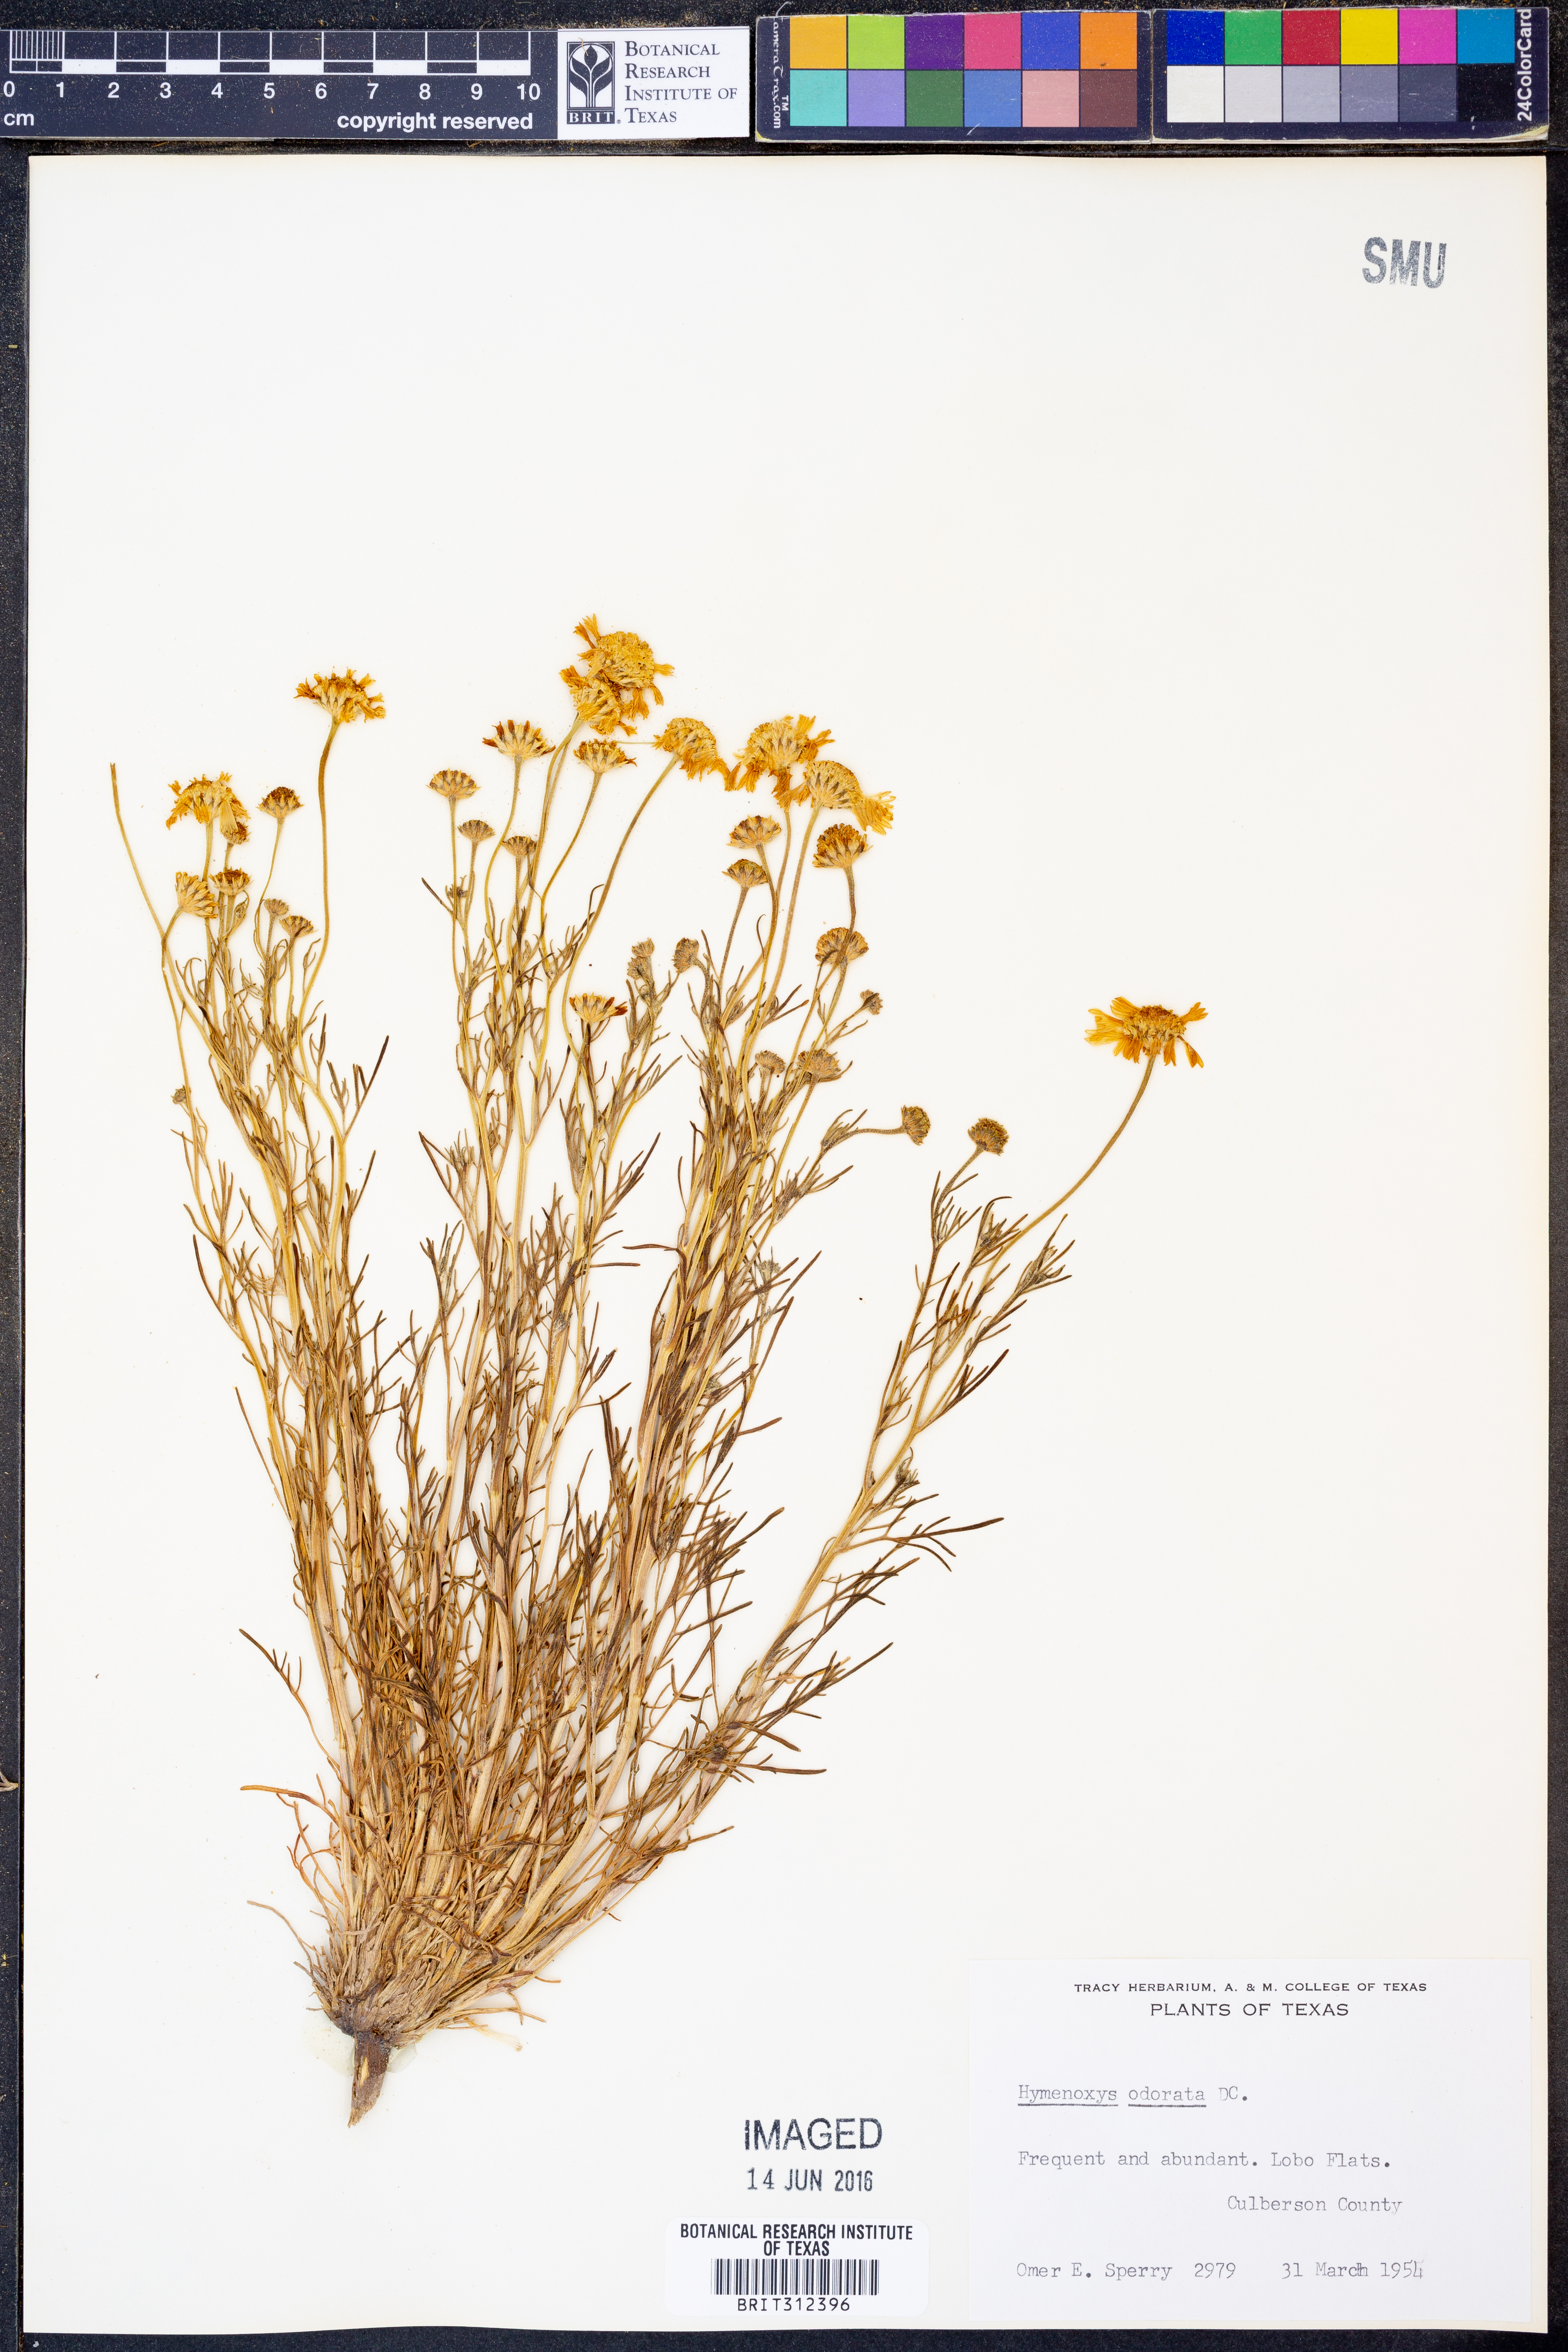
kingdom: Plantae
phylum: Tracheophyta
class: Magnoliopsida
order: Asterales
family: Asteraceae
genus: Hymenoxys
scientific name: Hymenoxys odorata
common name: Bitter rubberweed
